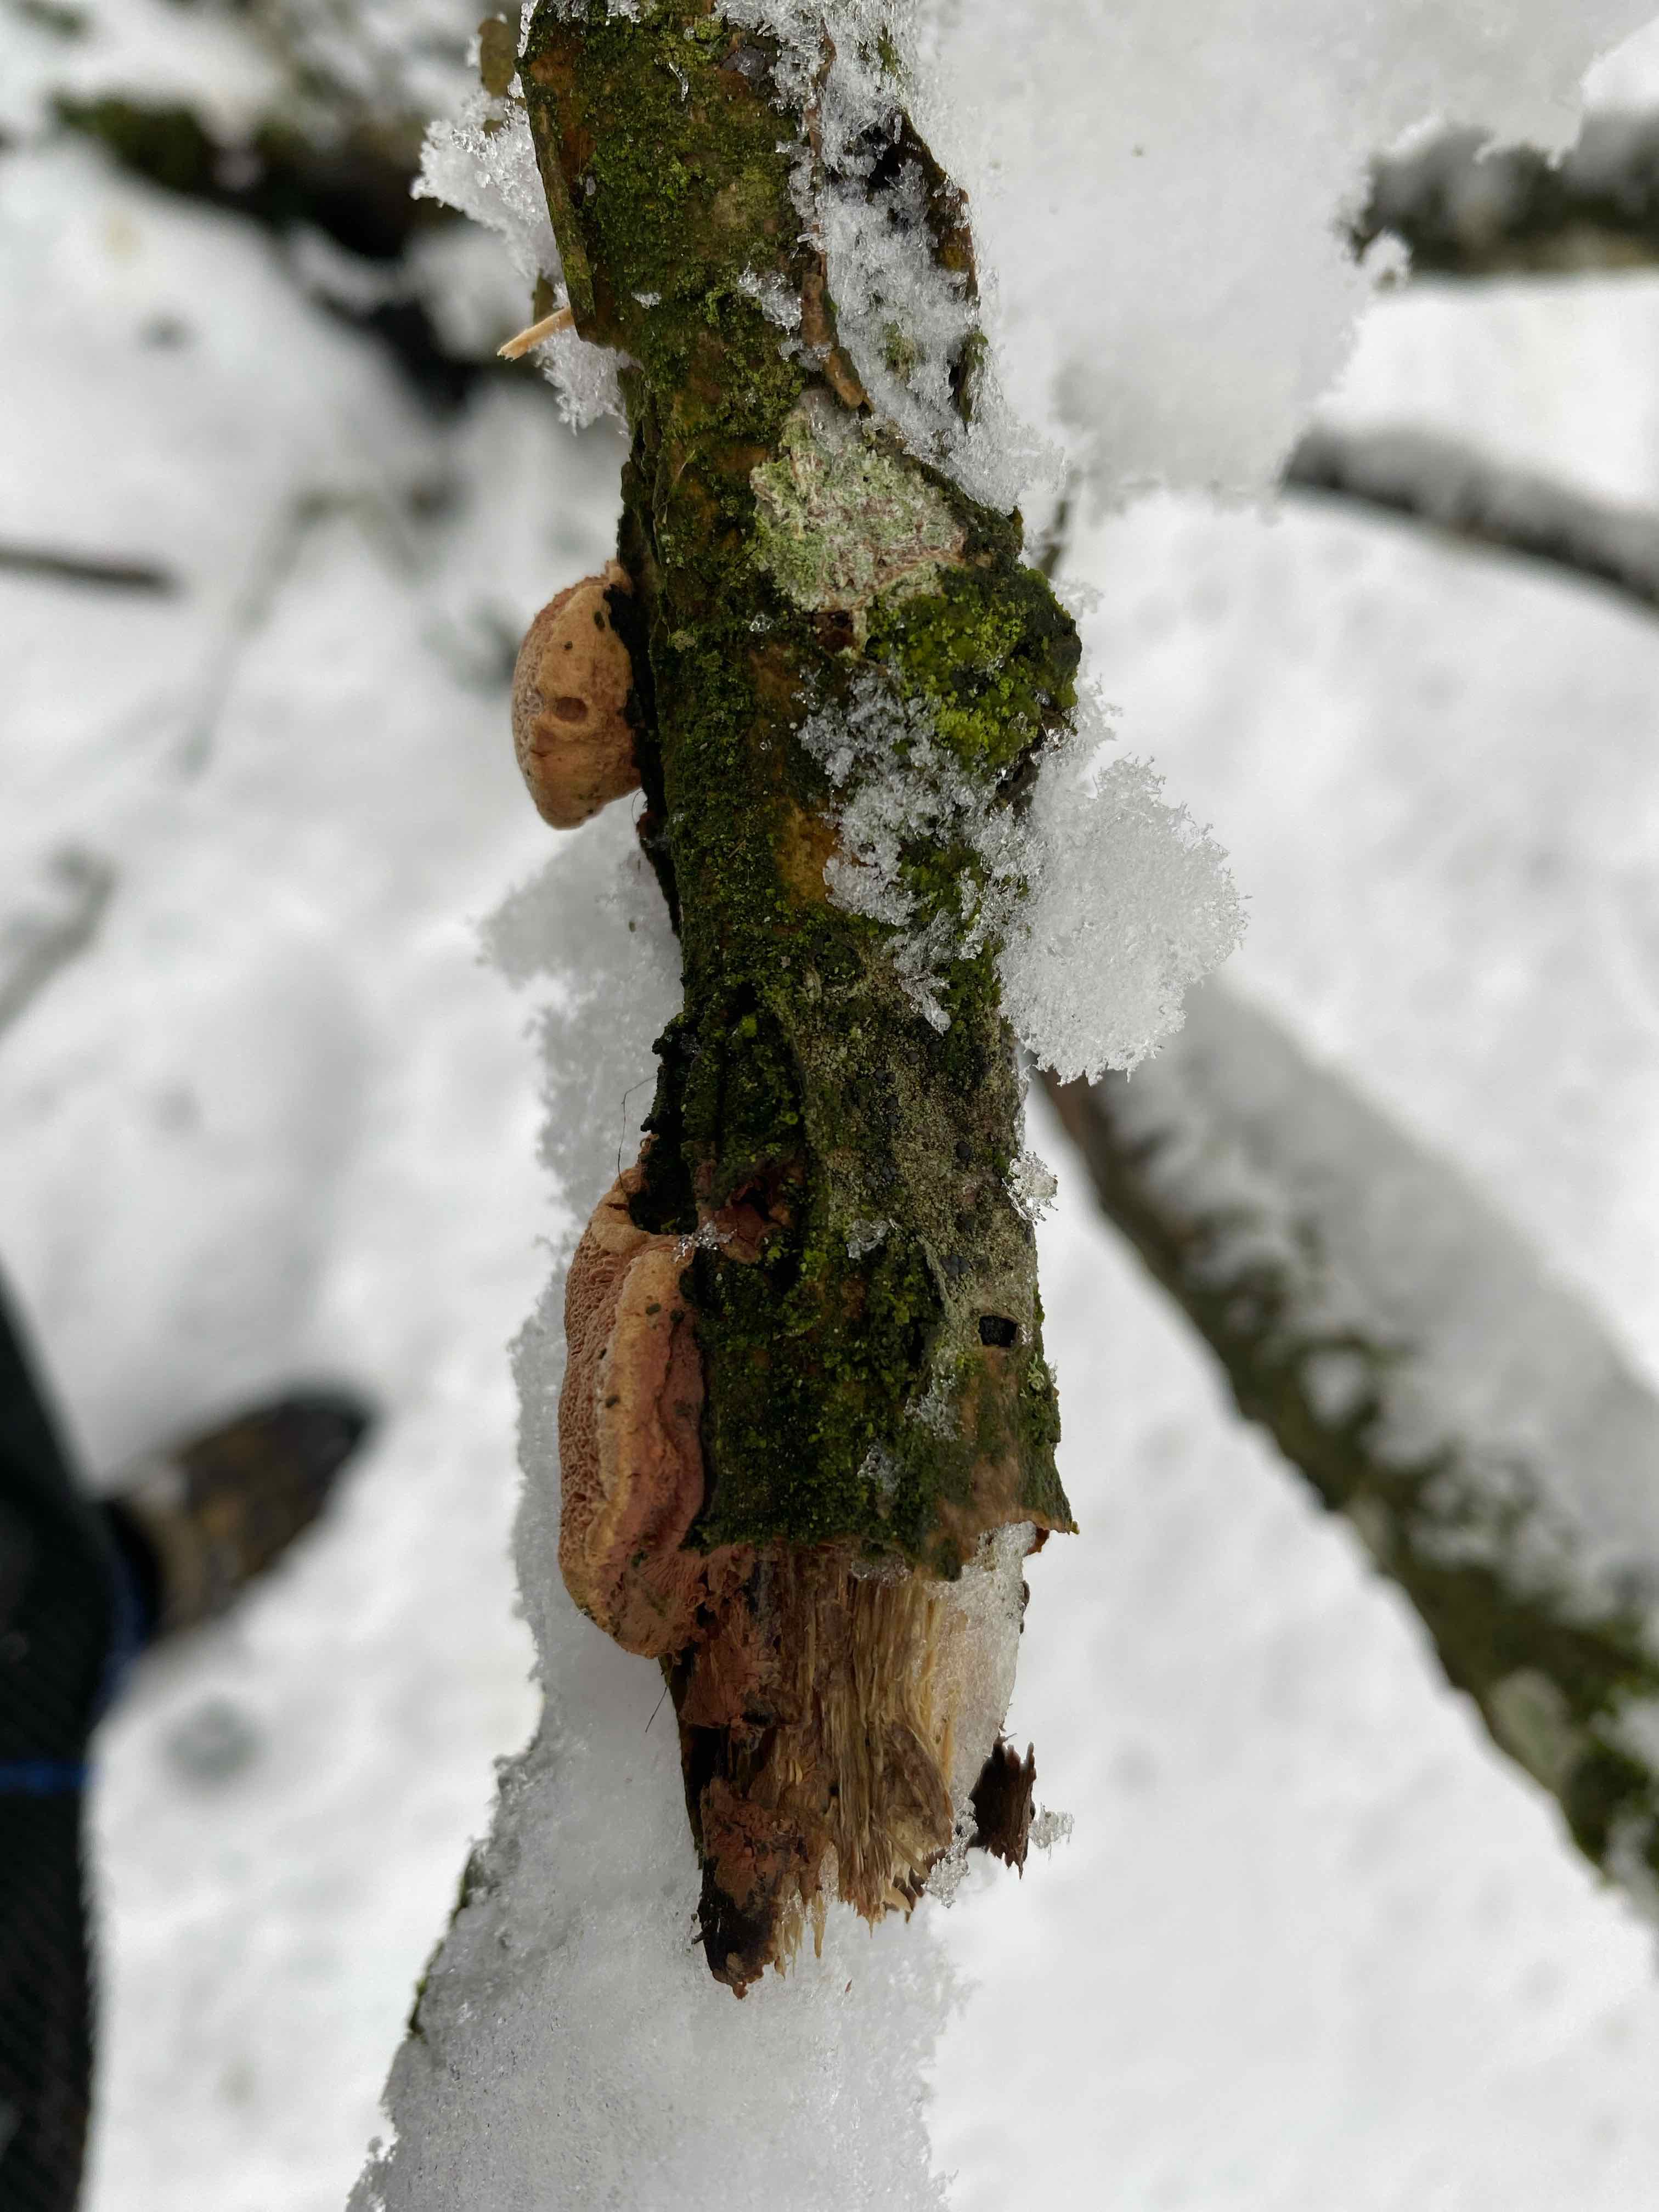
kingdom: Fungi
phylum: Basidiomycota
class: Agaricomycetes
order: Polyporales
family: Phanerochaetaceae
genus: Hapalopilus
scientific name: Hapalopilus rutilans
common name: rødlig okkerporesvamp
